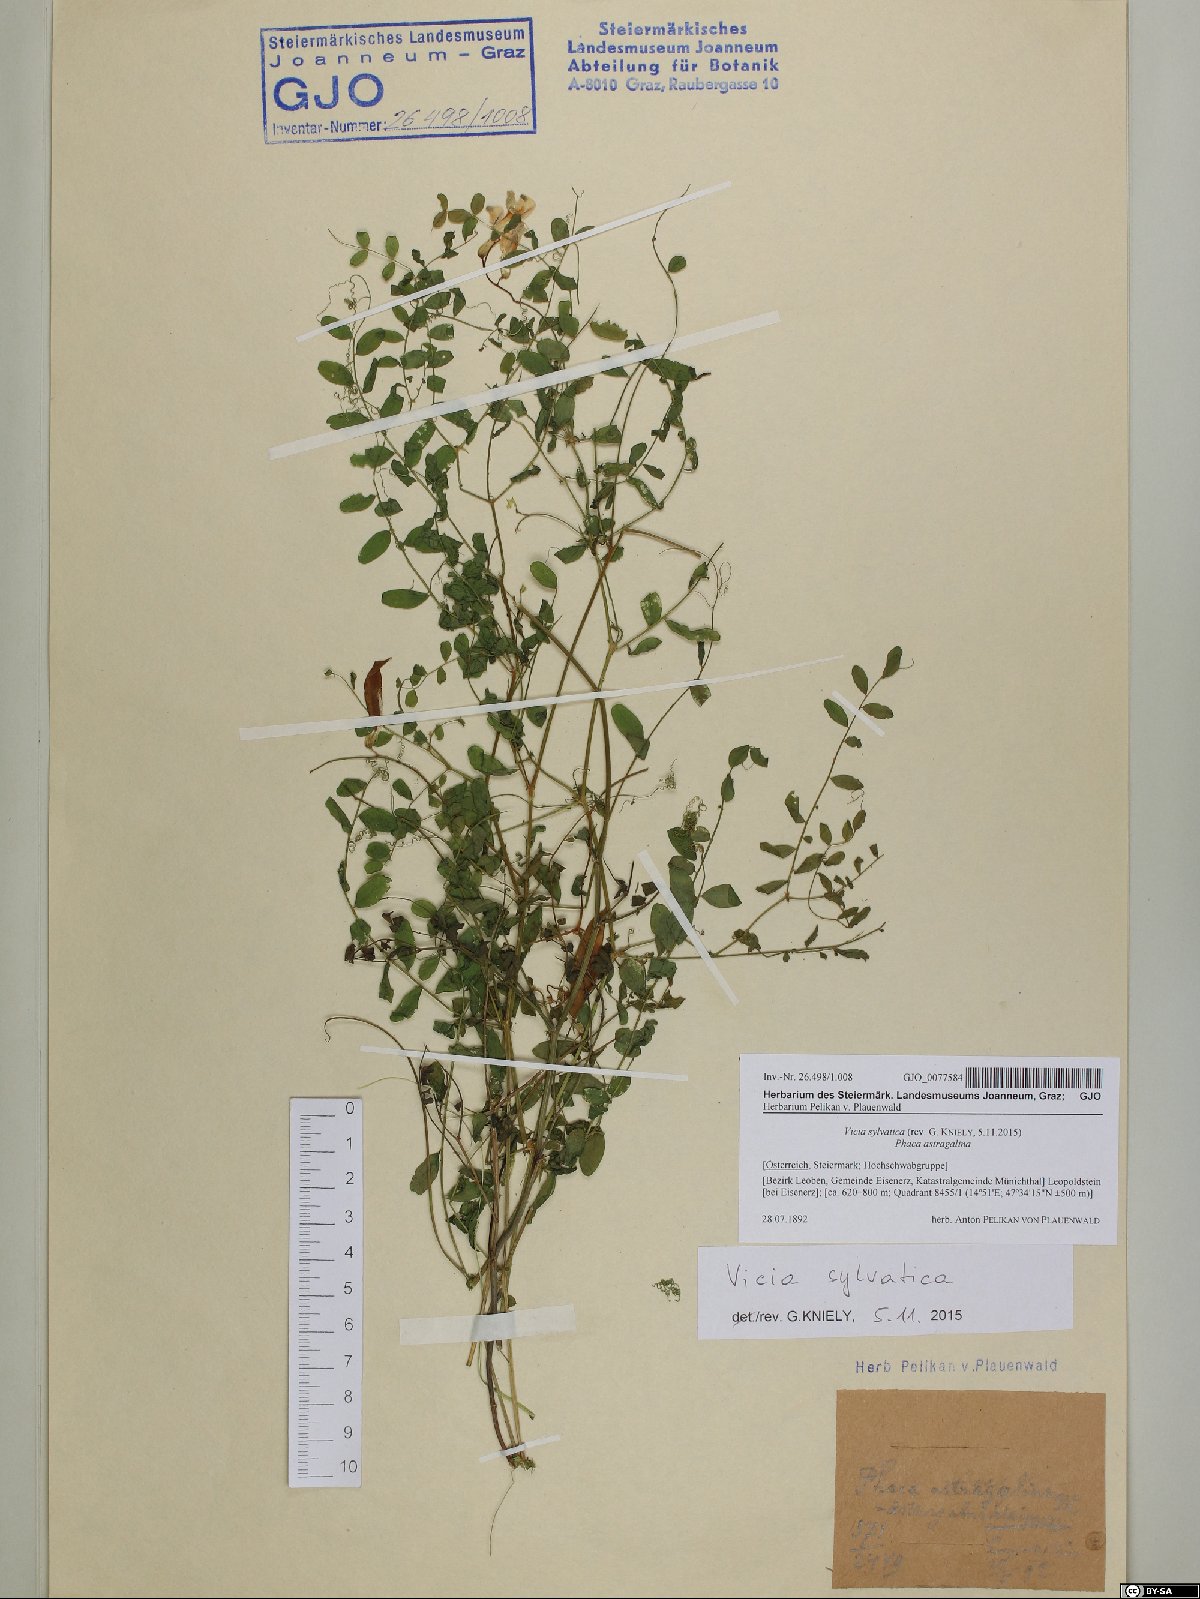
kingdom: Plantae
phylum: Tracheophyta
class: Magnoliopsida
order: Fabales
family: Fabaceae
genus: Vicia
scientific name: Vicia sylvatica
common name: Wood vetch
